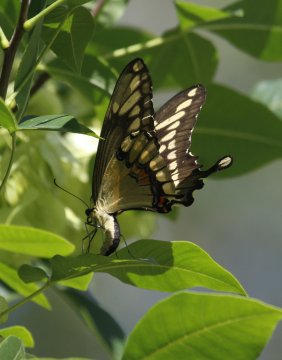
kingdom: Animalia
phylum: Arthropoda
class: Insecta
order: Lepidoptera
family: Papilionidae
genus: Papilio
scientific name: Papilio cresphontes
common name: Eastern Giant Swallowtail
